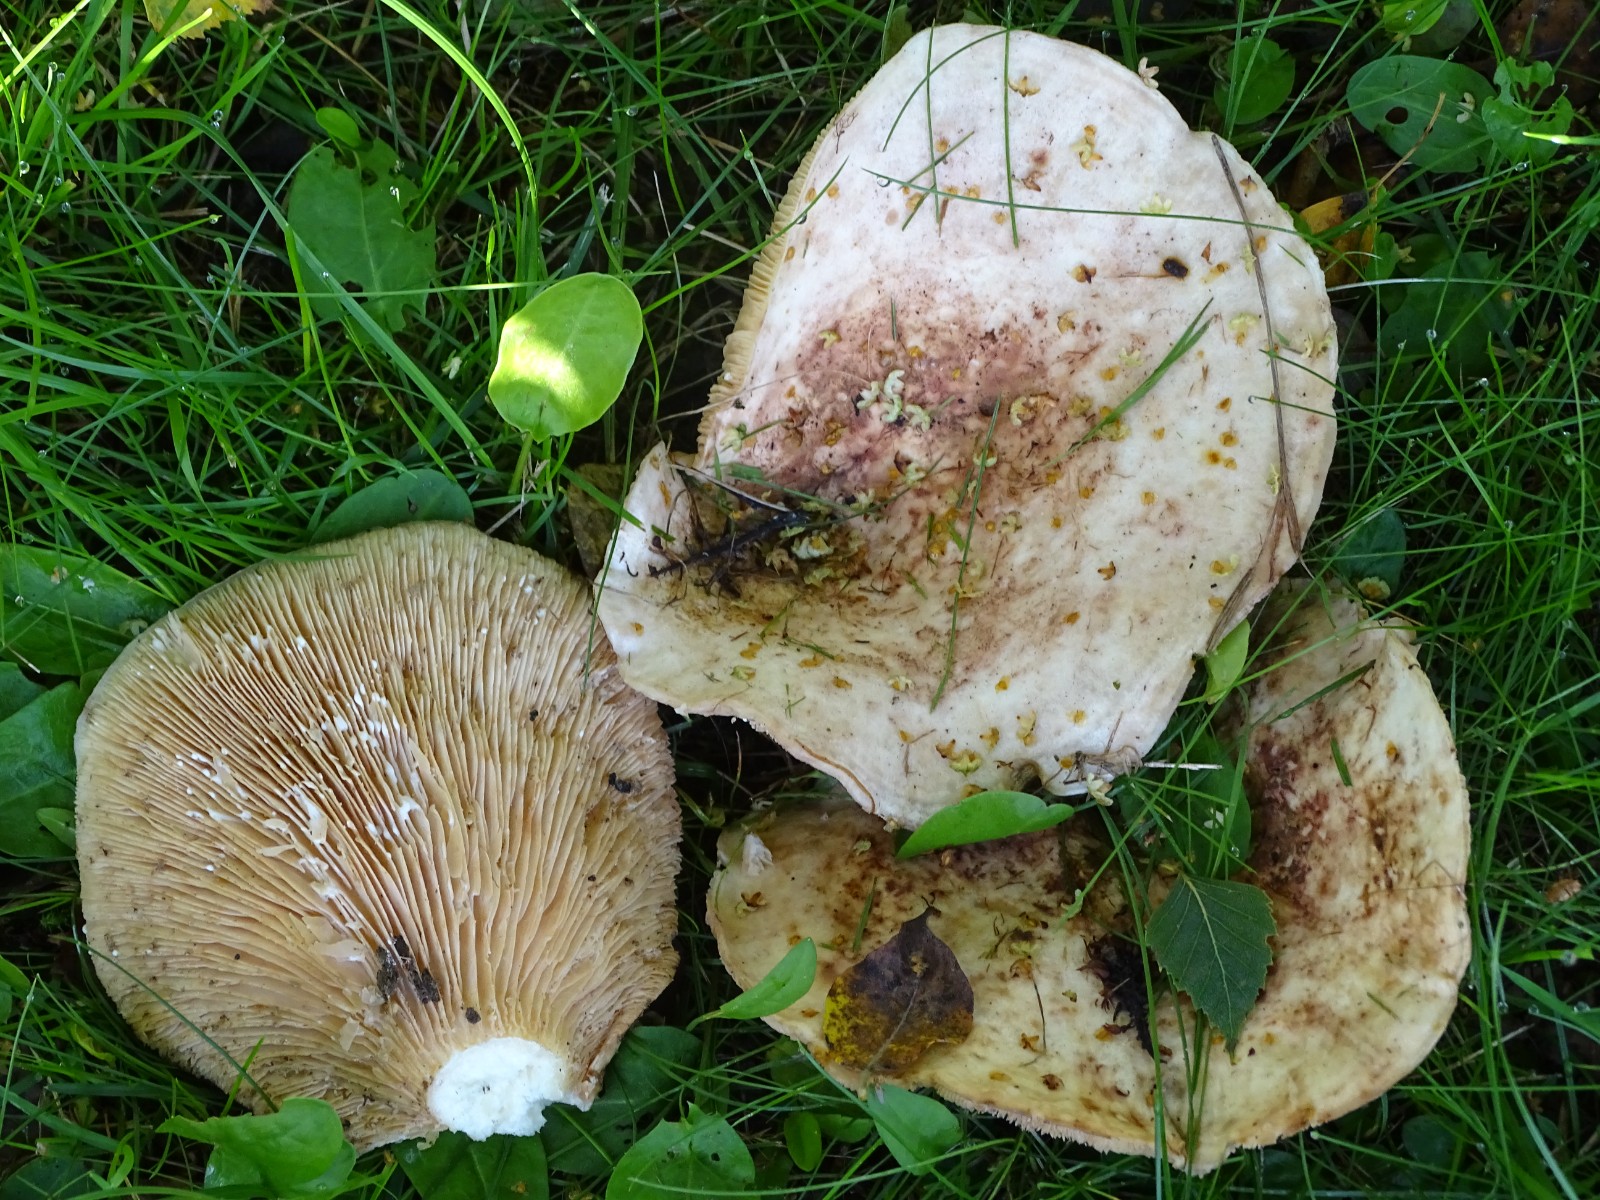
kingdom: Fungi
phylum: Basidiomycota
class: Agaricomycetes
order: Russulales
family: Russulaceae
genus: Lactarius
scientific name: Lactarius controversus
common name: rosabladet mælkehat
